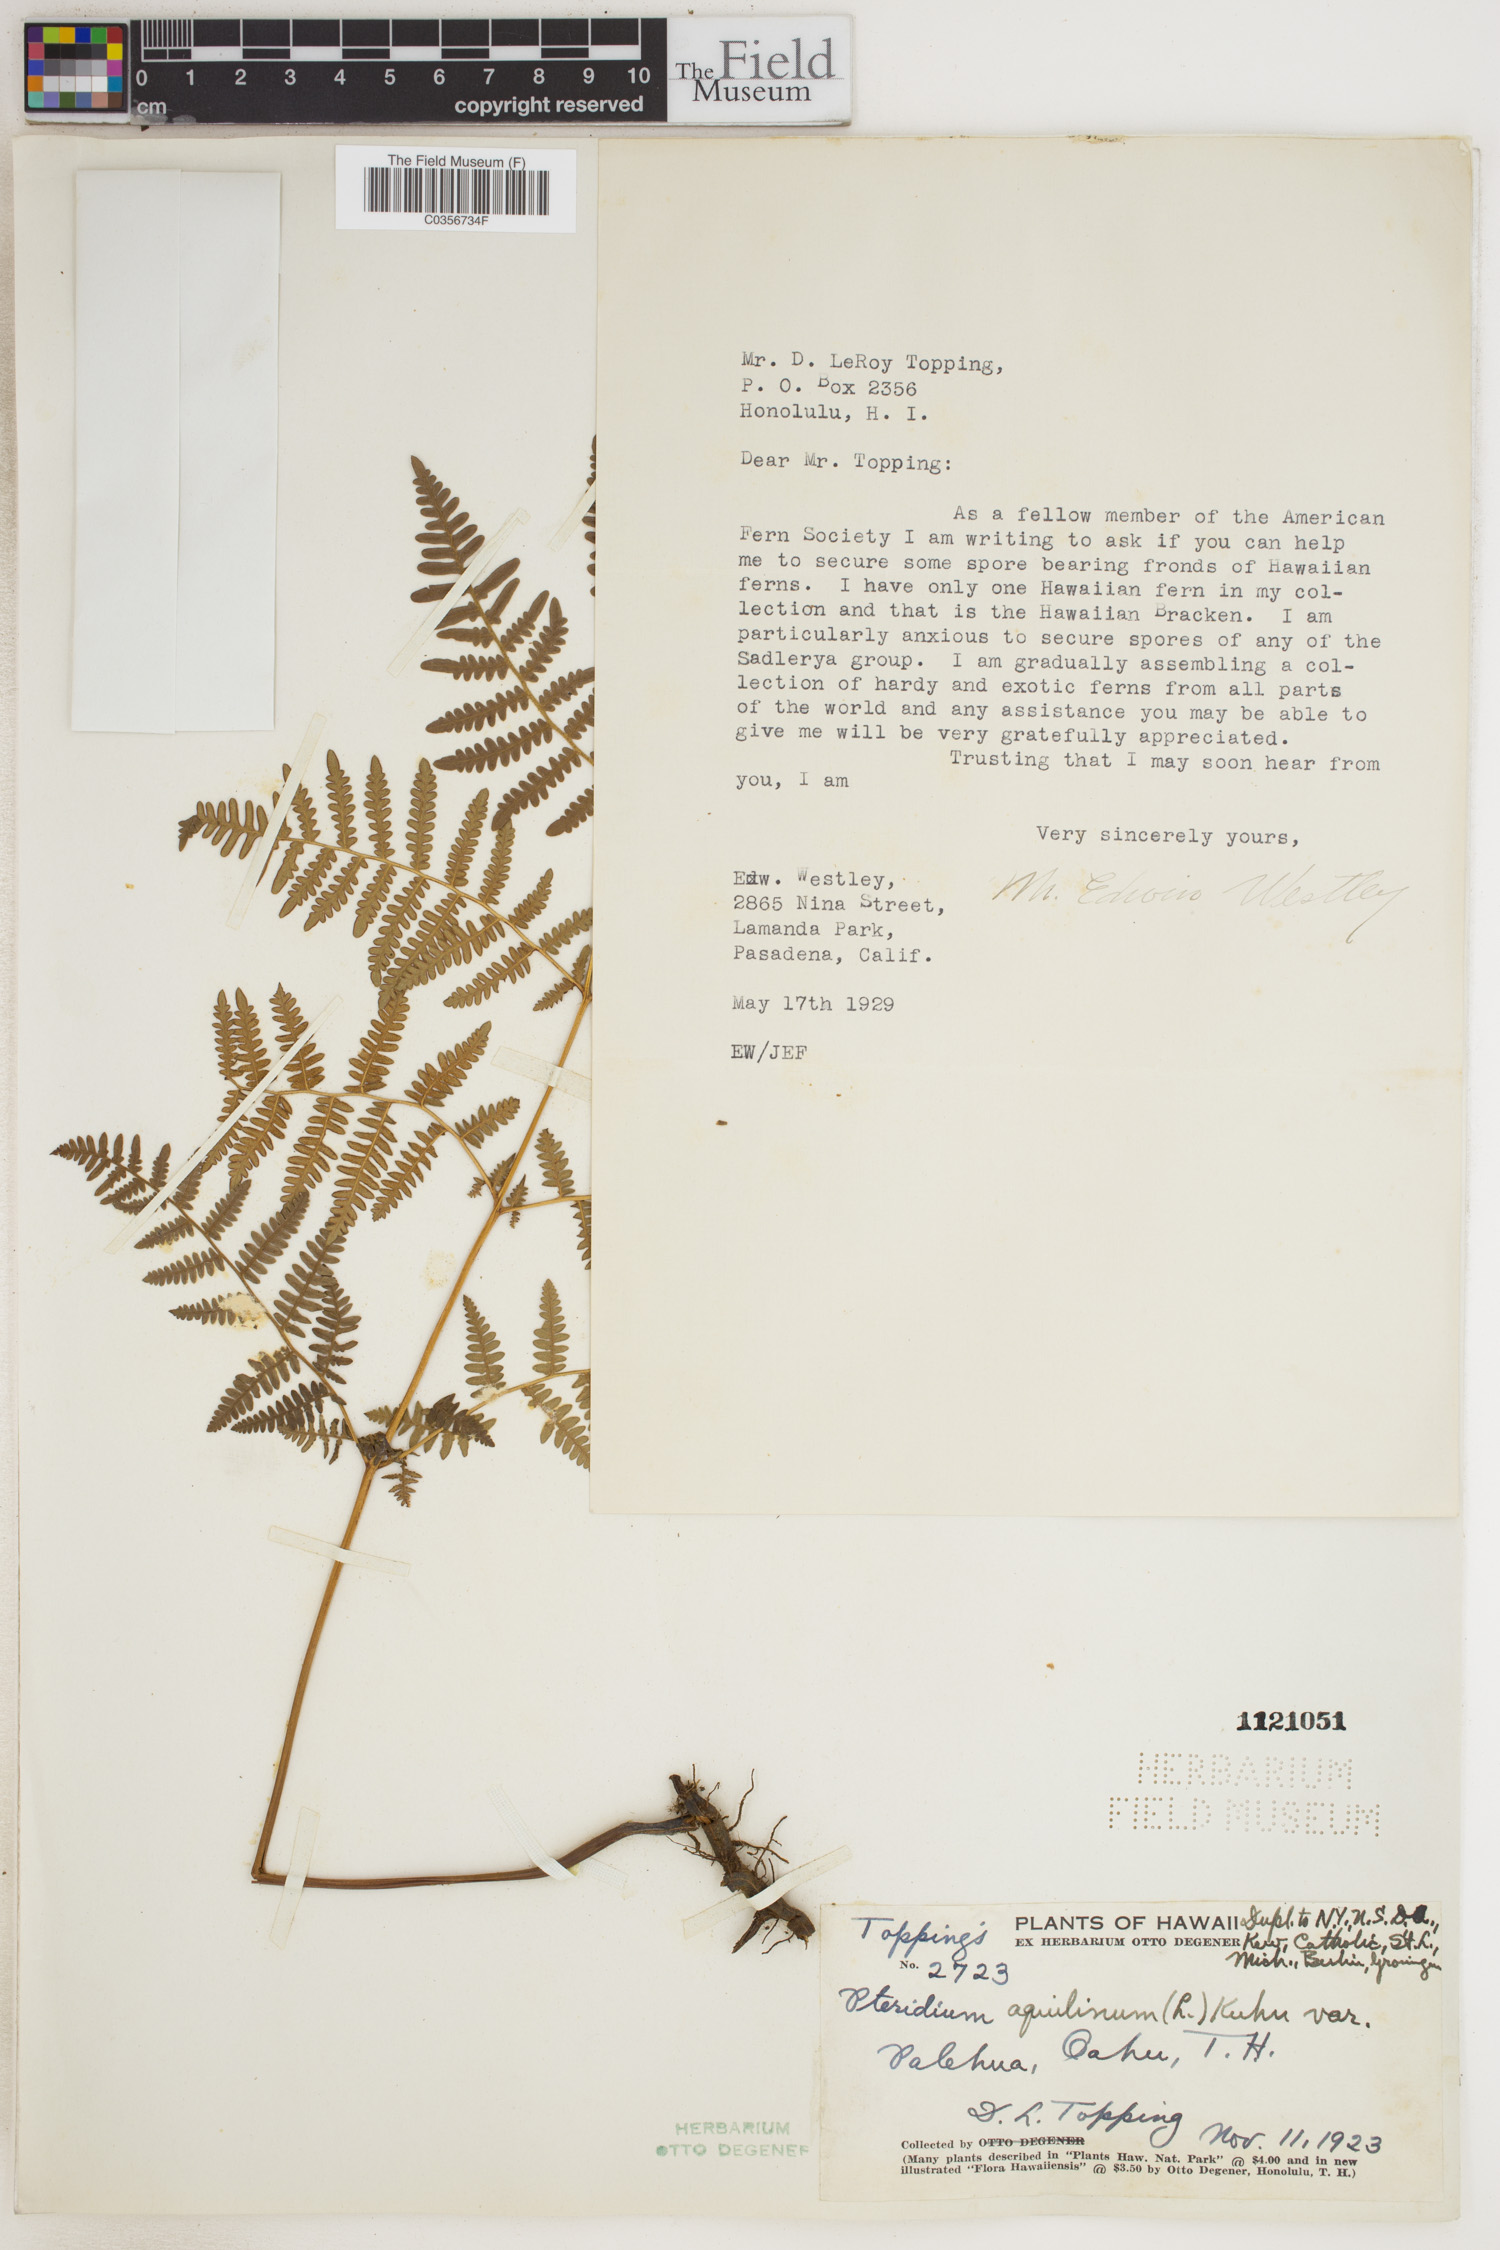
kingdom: Plantae
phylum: Tracheophyta
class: Polypodiopsida
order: Polypodiales
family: Dennstaedtiaceae
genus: Pteridium
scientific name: Pteridium aquilinum
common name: Bracken
